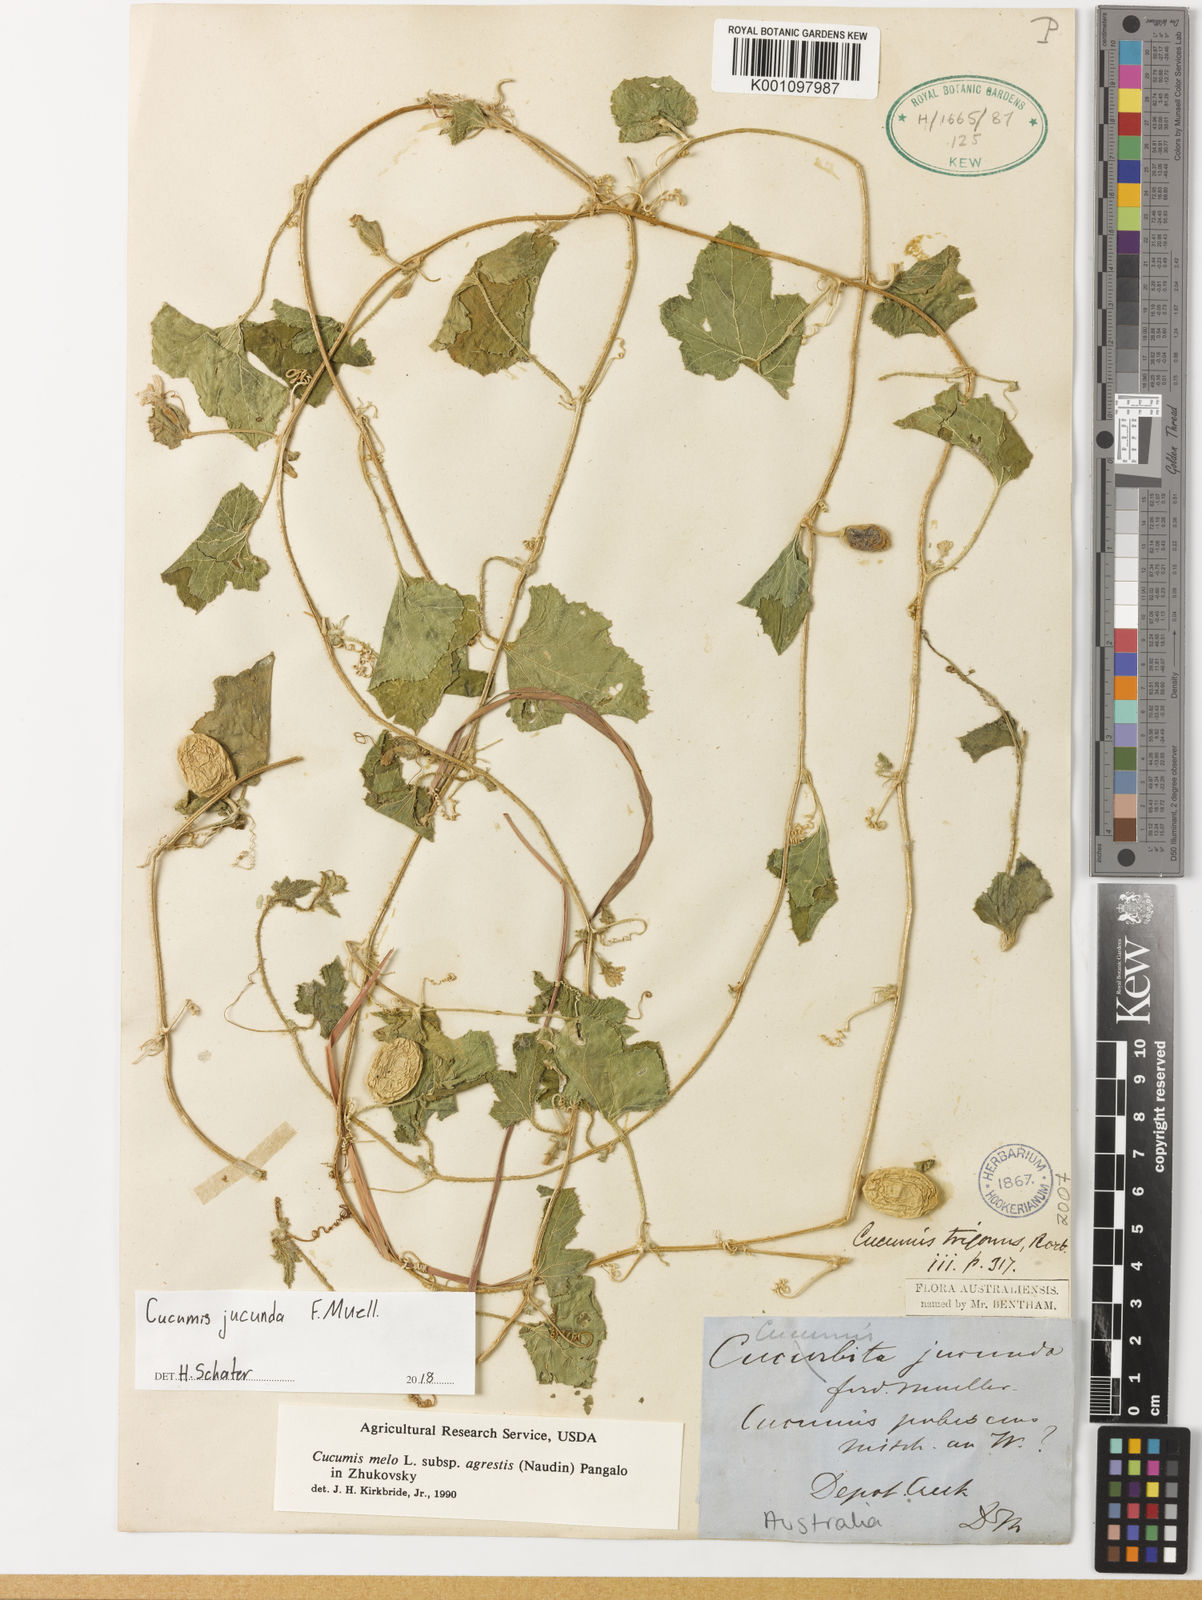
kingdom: Plantae
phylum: Tracheophyta
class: Magnoliopsida
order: Cucurbitales
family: Cucurbitaceae
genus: Cucumis
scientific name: Cucumis melo
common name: Melon
